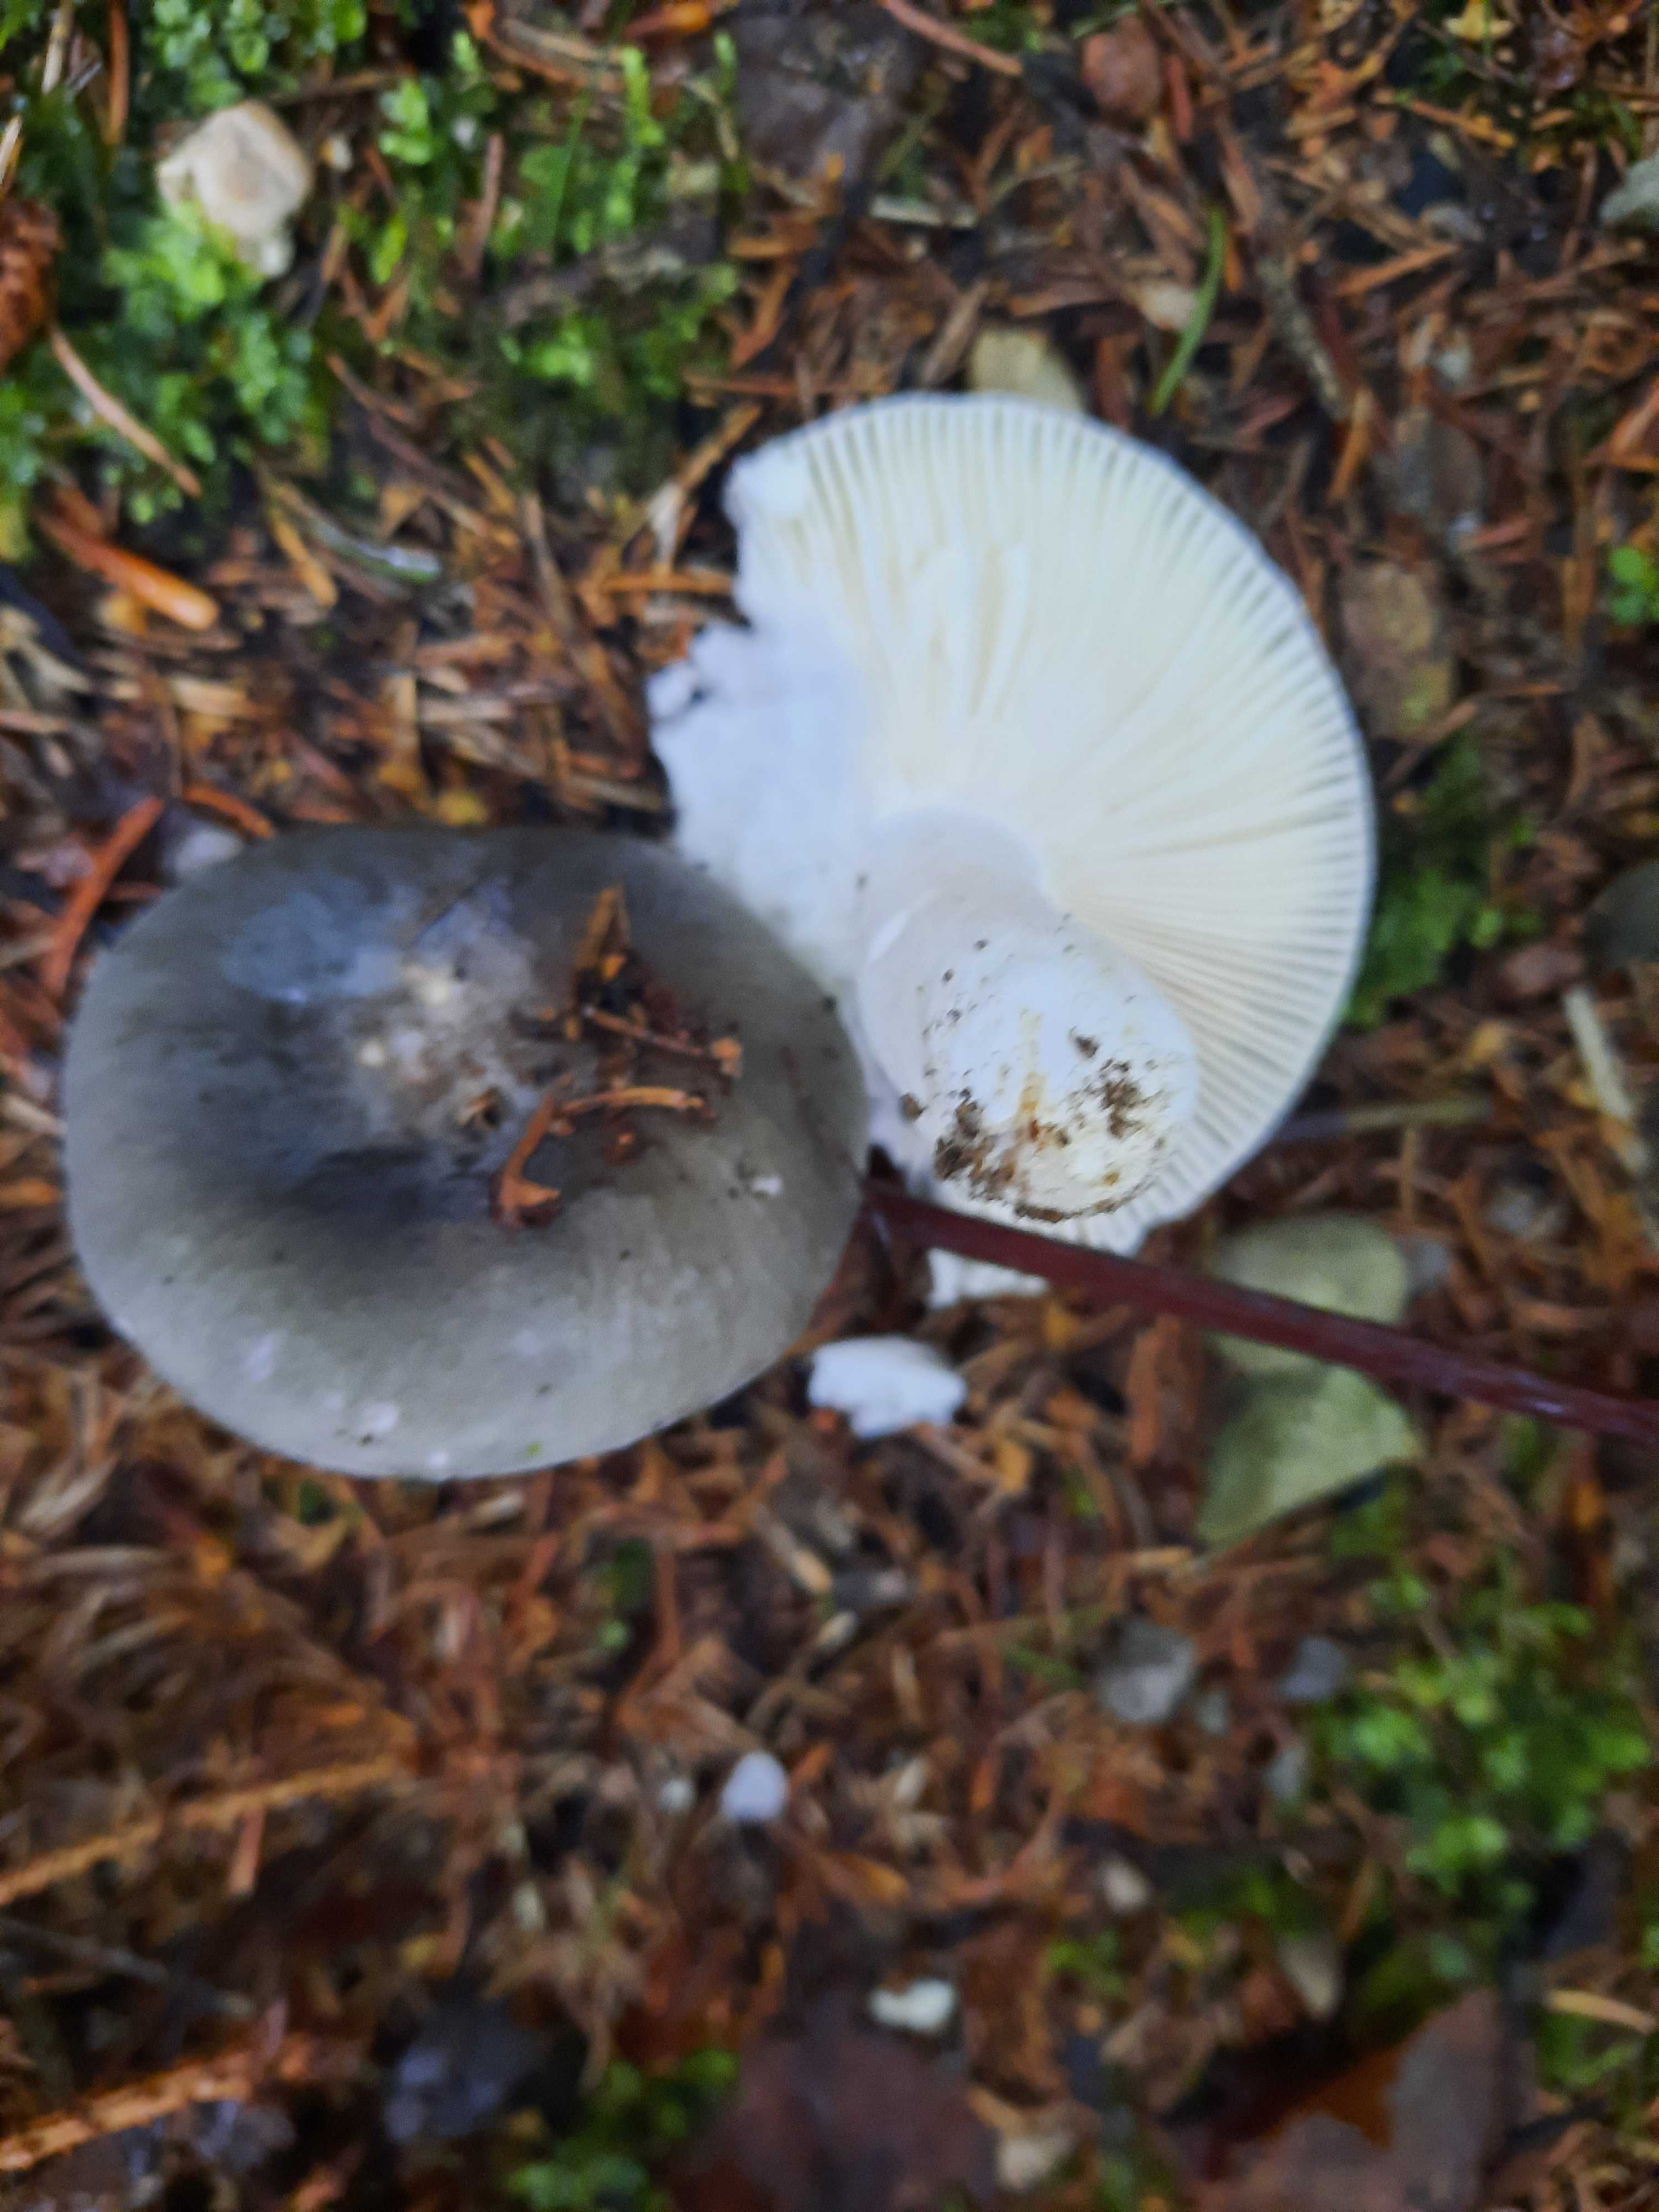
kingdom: Fungi
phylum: Basidiomycota
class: Agaricomycetes
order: Russulales
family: Russulaceae
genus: Russula
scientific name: Russula cyanoxantha
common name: broget skørhat
